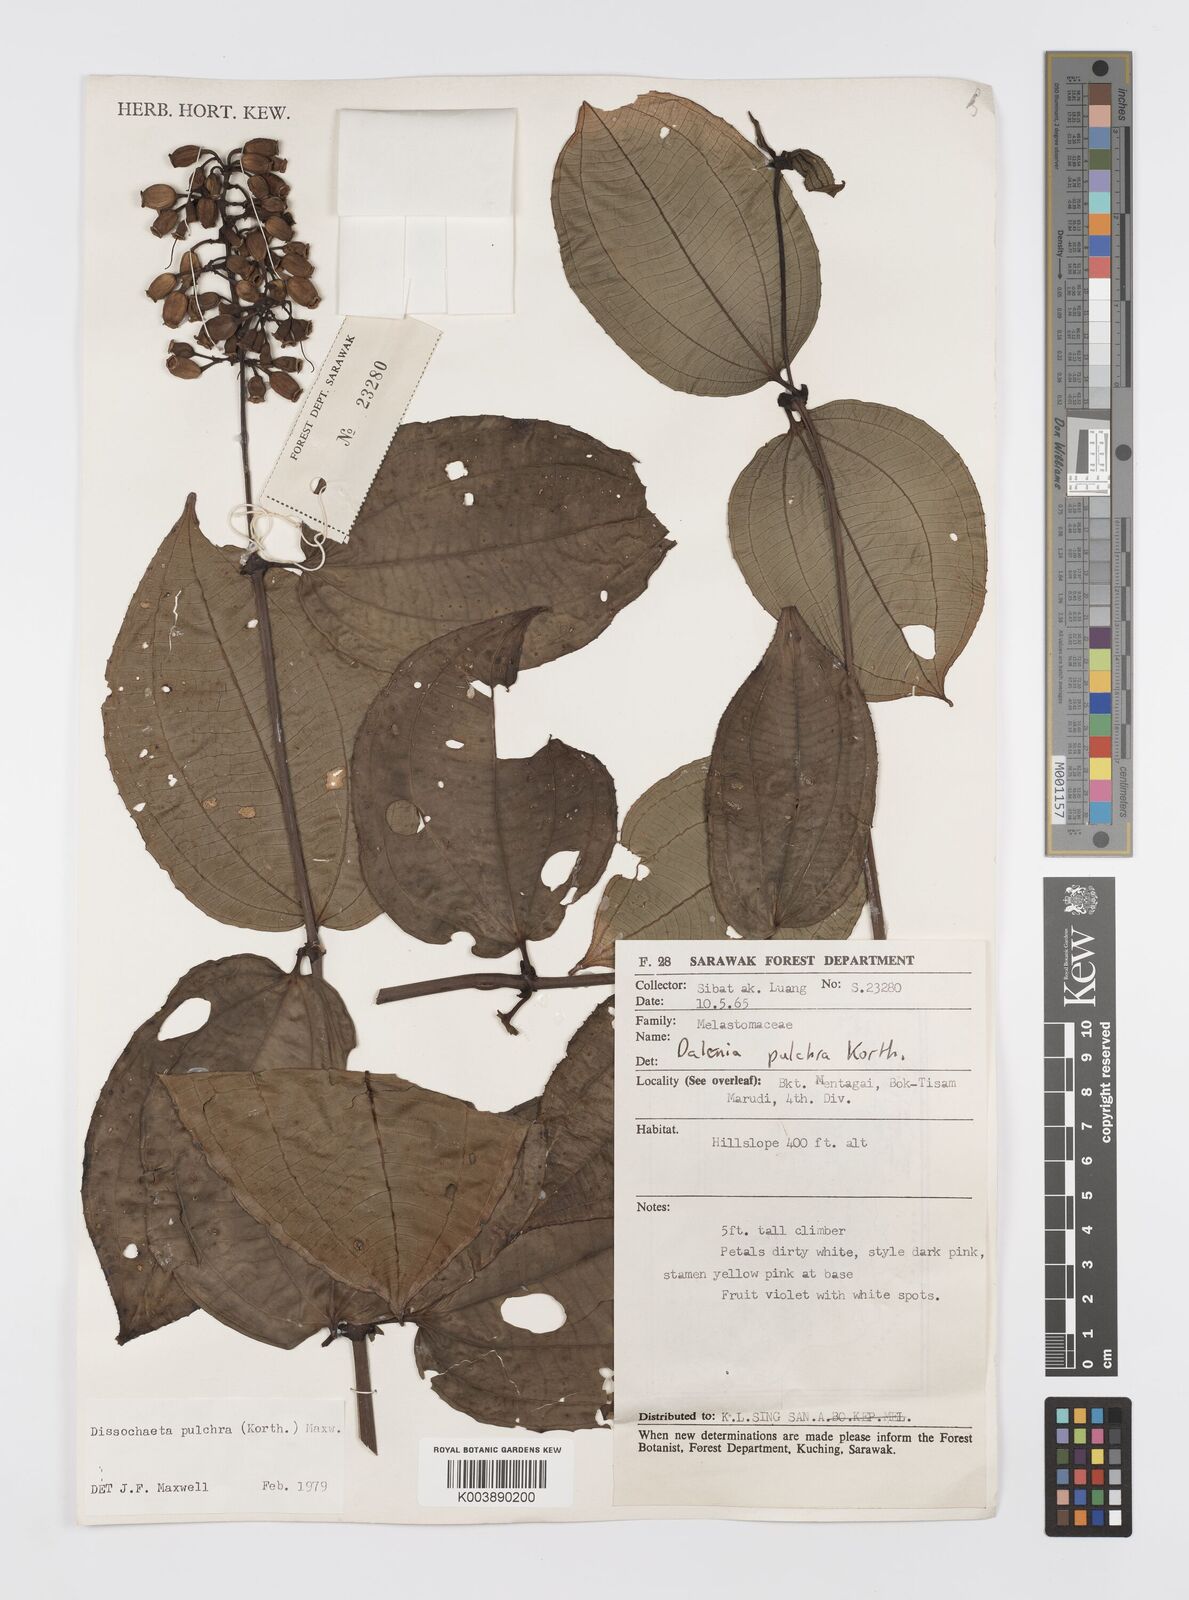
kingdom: Plantae
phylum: Tracheophyta
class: Magnoliopsida
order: Myrtales
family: Melastomataceae
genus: Dalenia
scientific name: Dalenia pulchra
